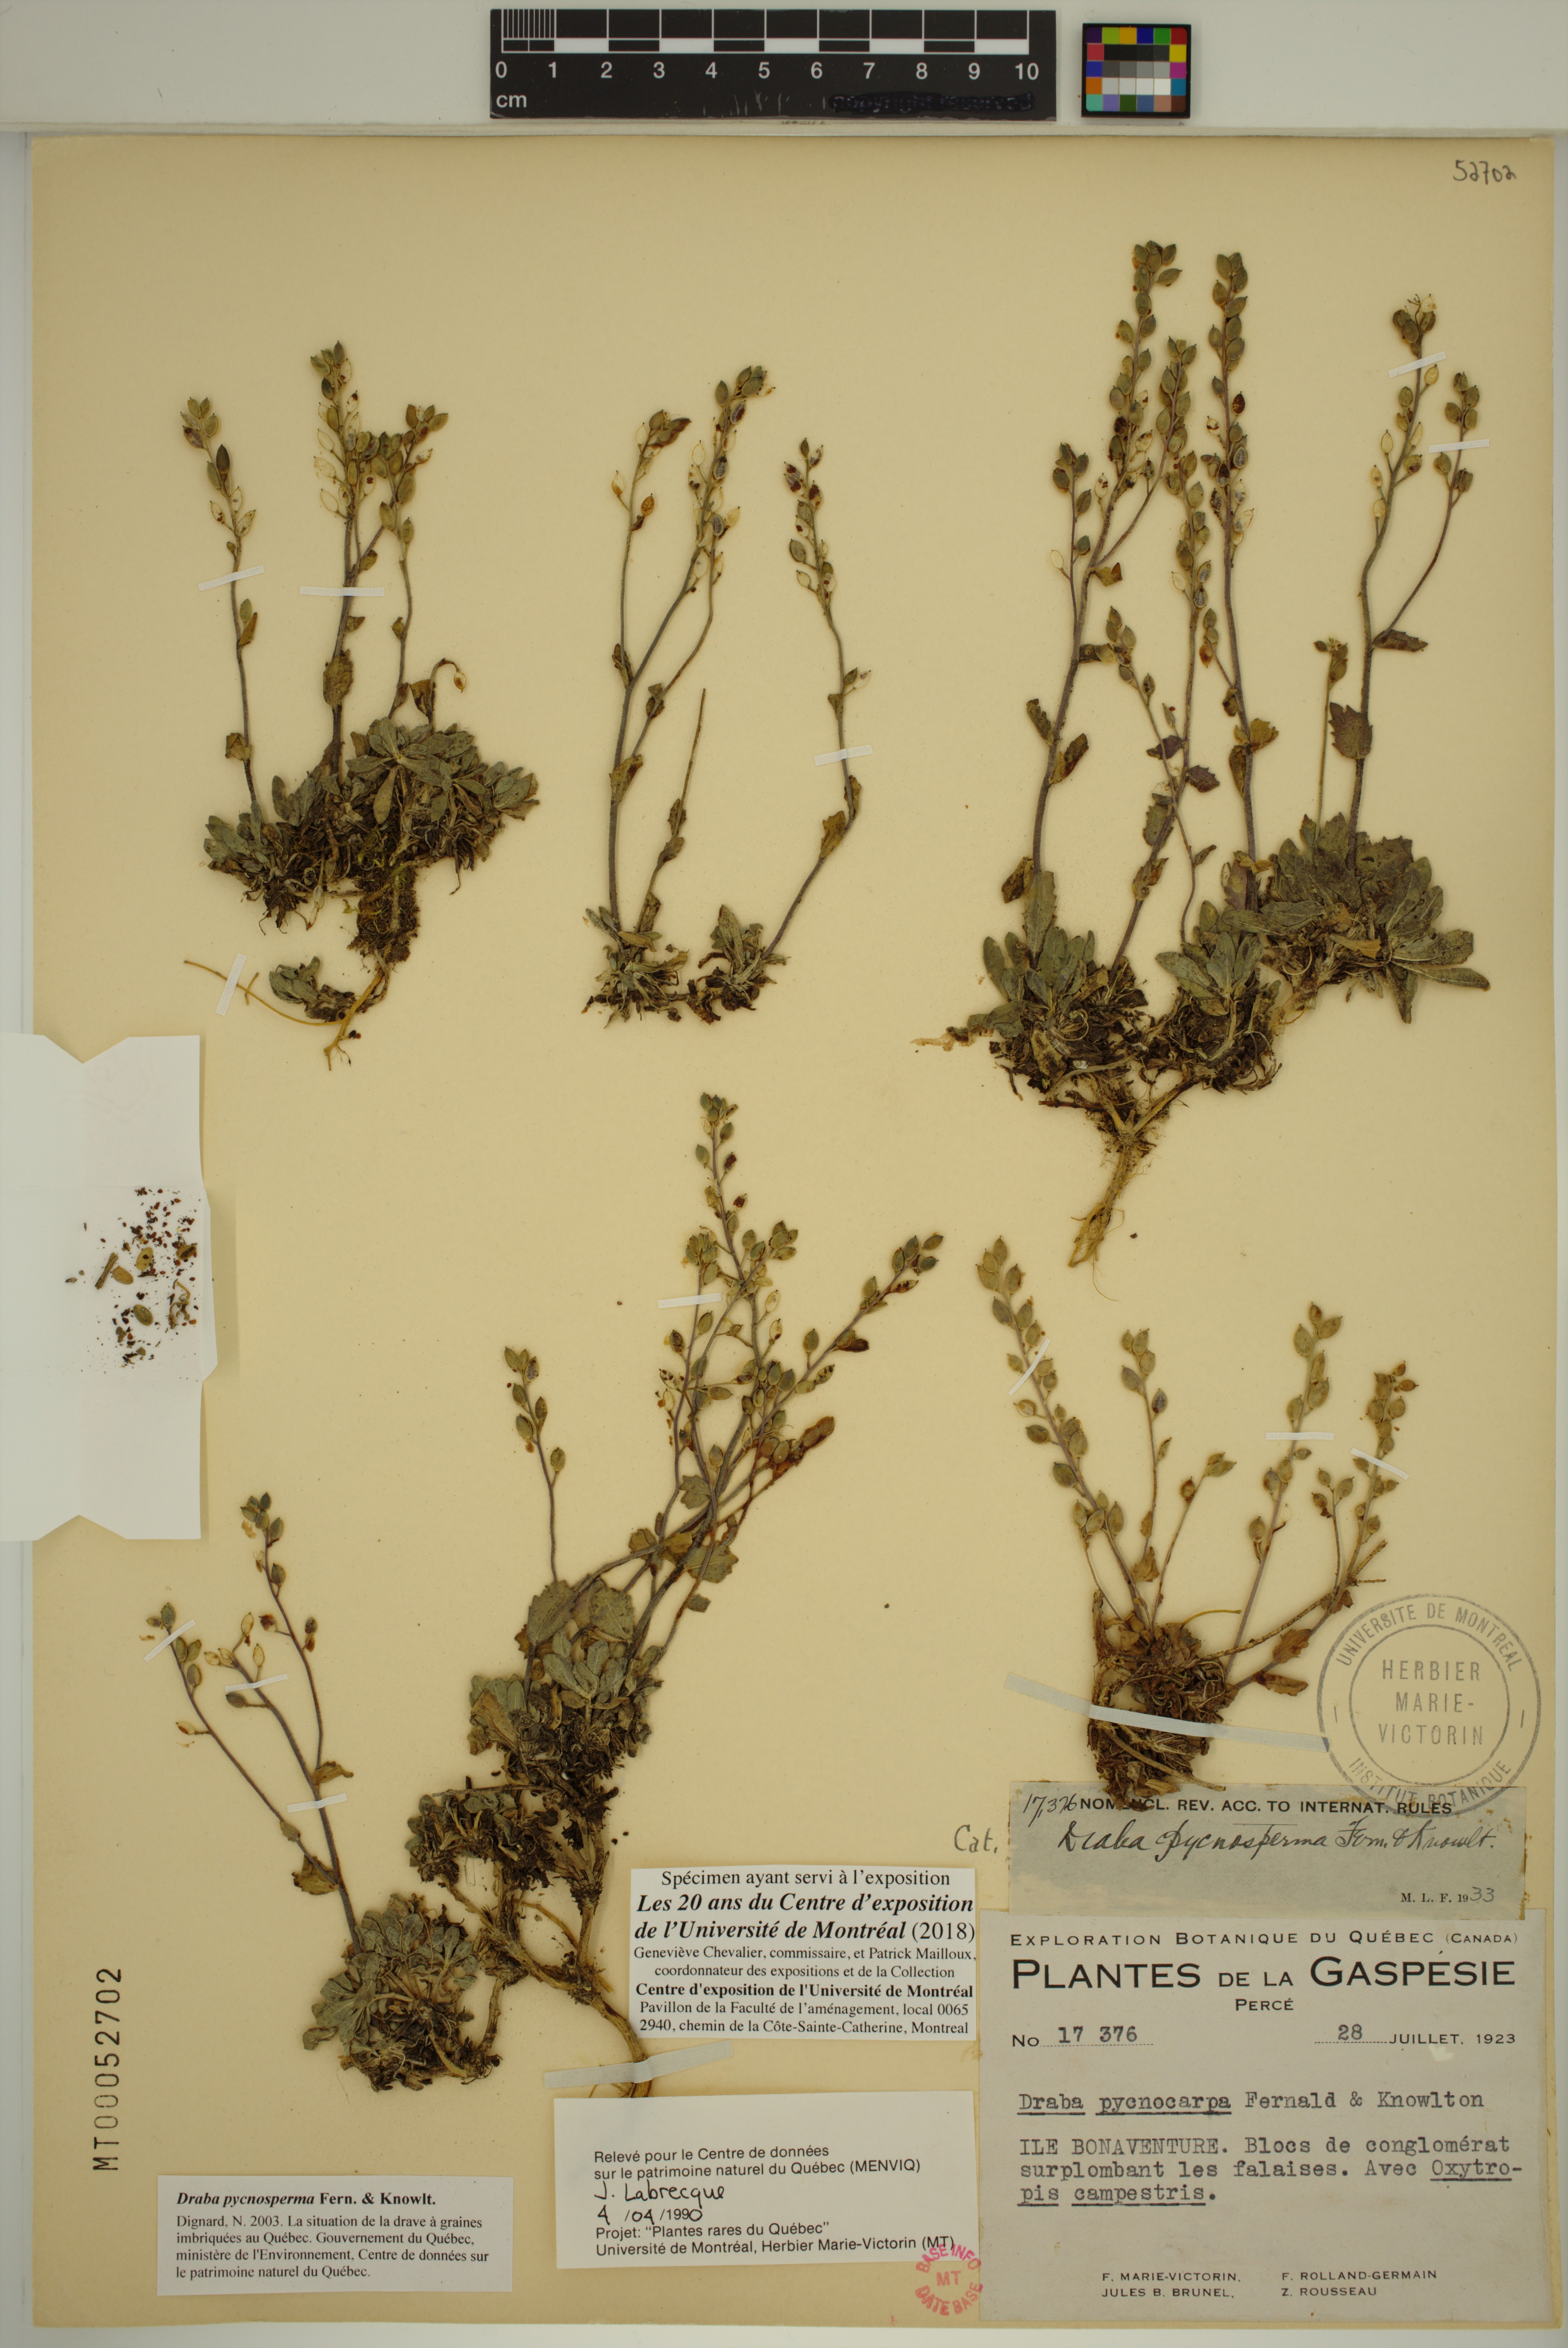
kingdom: Plantae
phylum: Tracheophyta
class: Magnoliopsida
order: Brassicales
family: Brassicaceae
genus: Draba
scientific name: Draba pycnosperma
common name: Dense draba
